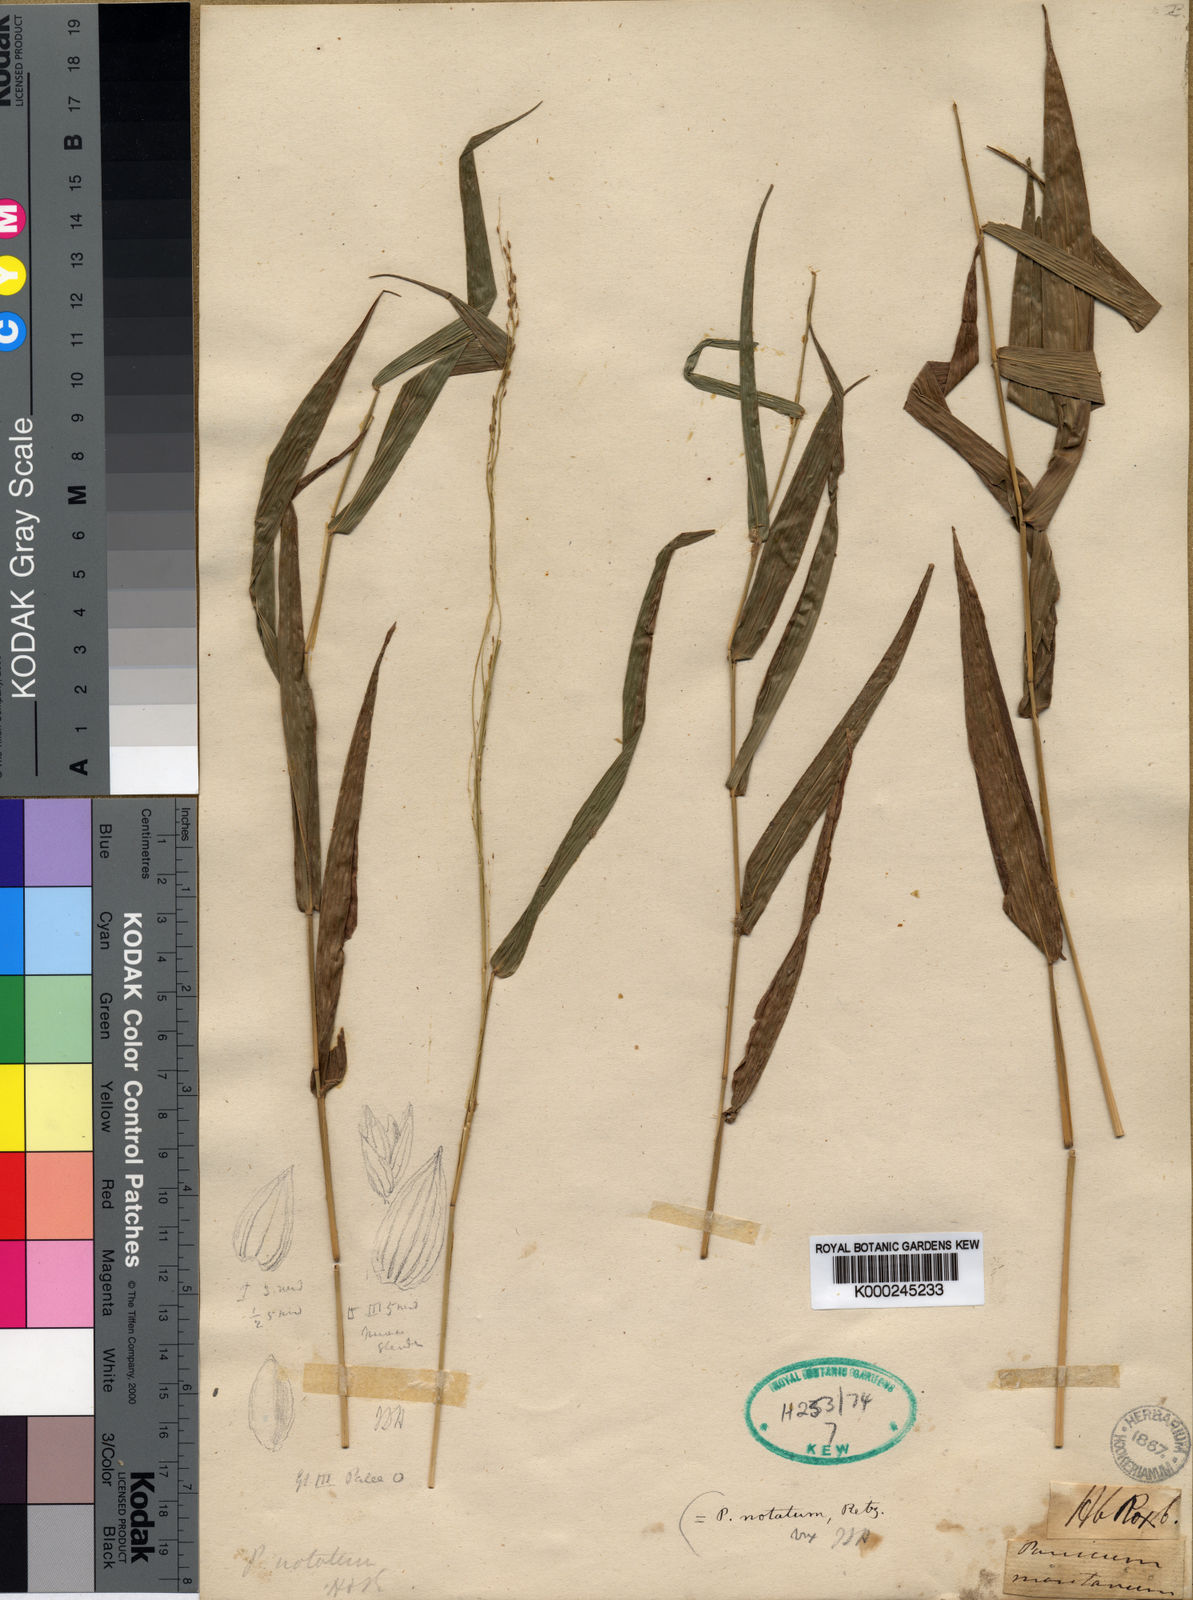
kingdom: Plantae
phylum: Tracheophyta
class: Liliopsida
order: Poales
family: Poaceae
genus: Panicum
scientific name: Panicum notatum
